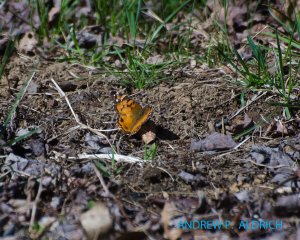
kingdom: Animalia
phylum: Arthropoda
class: Insecta
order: Lepidoptera
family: Nymphalidae
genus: Vanessa
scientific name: Vanessa virginiensis
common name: American Lady
